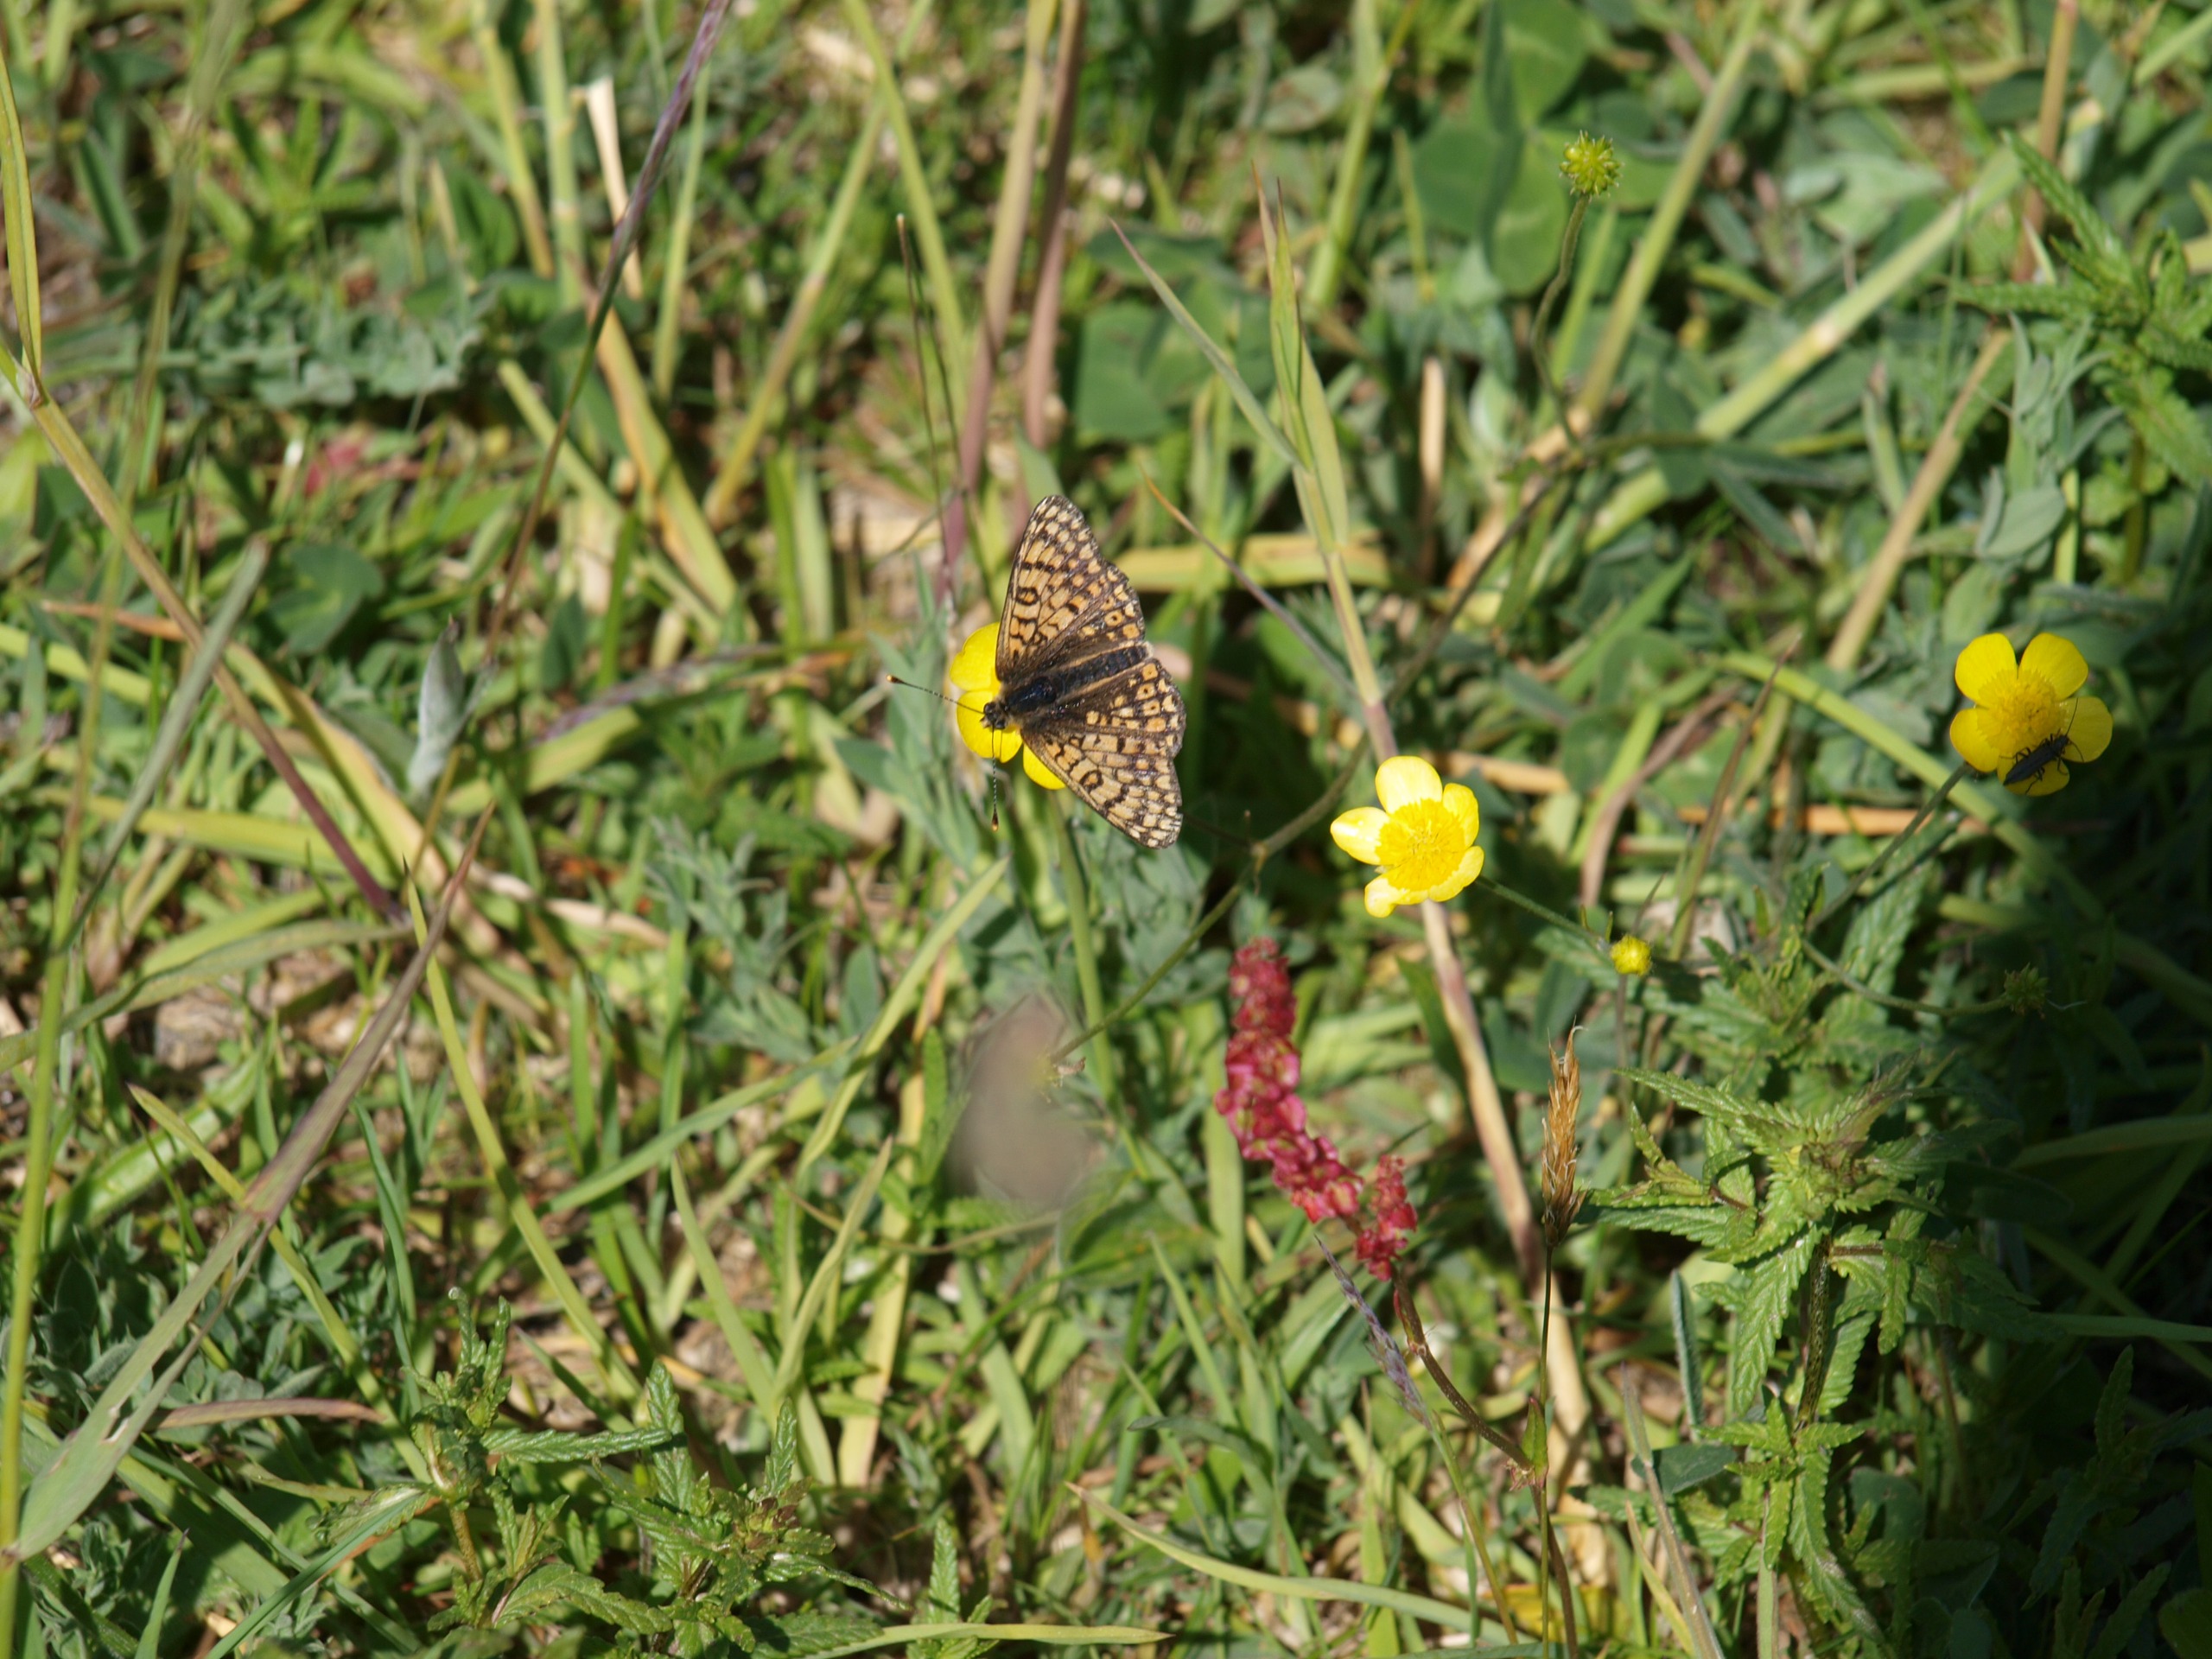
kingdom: Animalia
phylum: Arthropoda
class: Insecta
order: Lepidoptera
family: Nymphalidae
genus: Melitaea
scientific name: Melitaea cinxia
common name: Okkergul pletvinge
